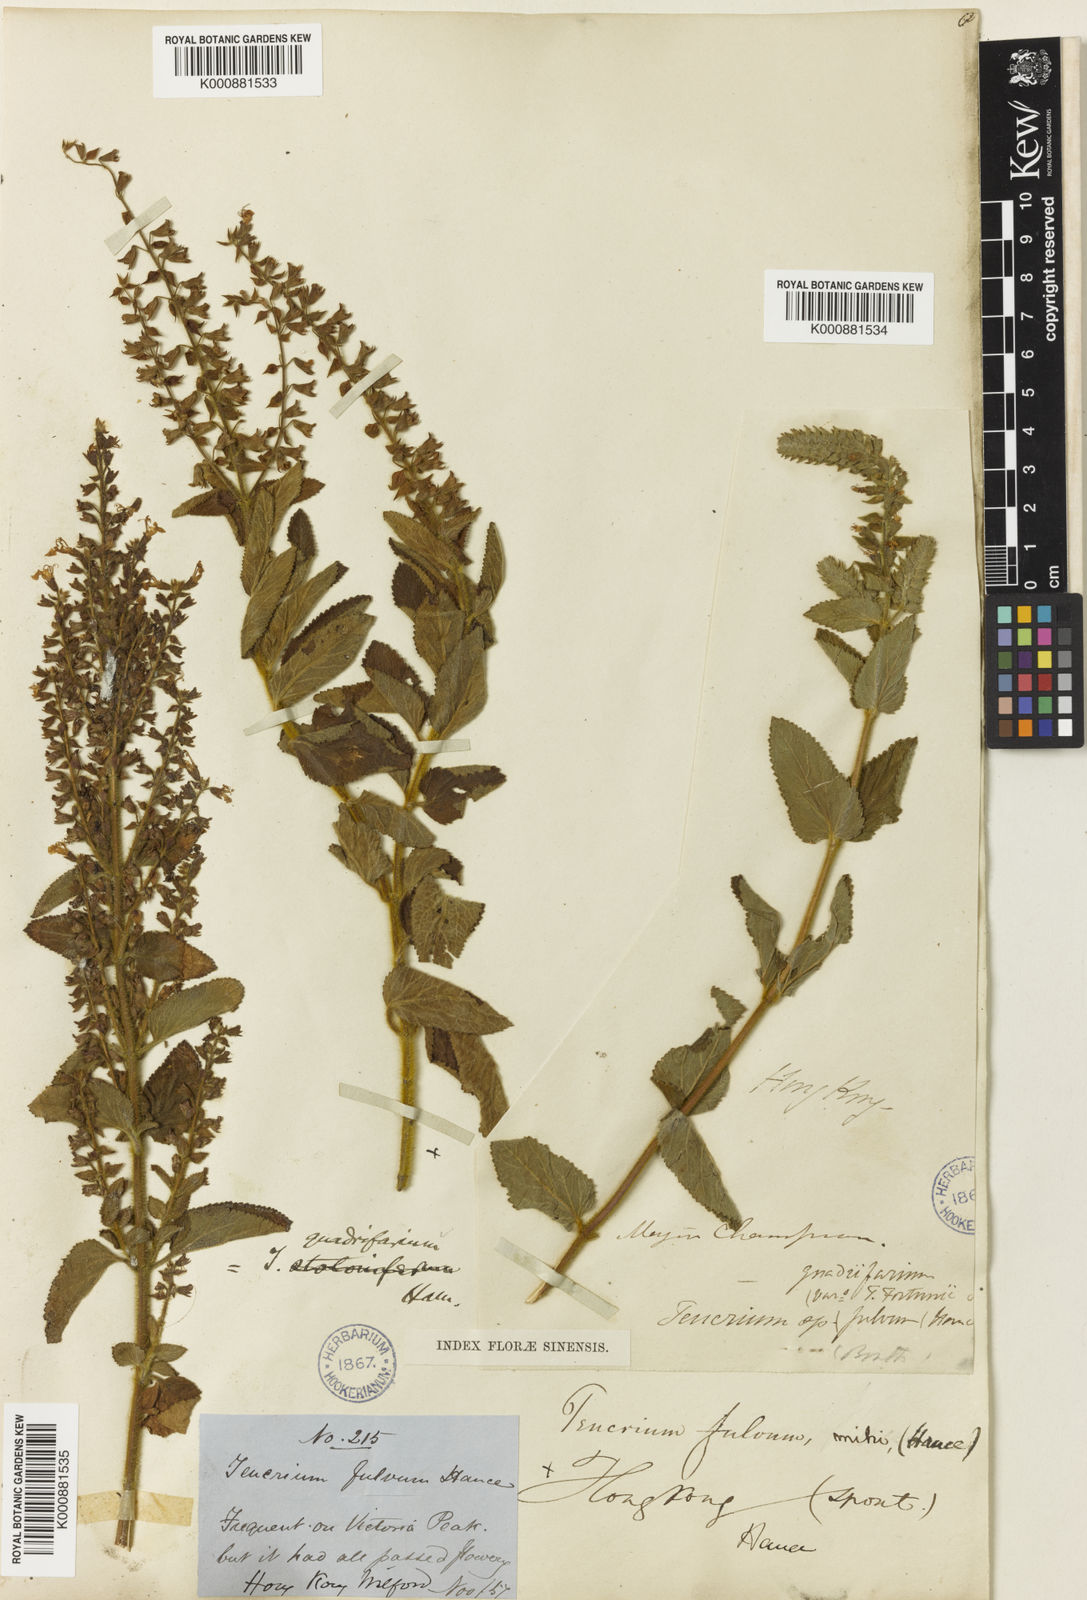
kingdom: Plantae
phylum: Tracheophyta
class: Magnoliopsida
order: Lamiales
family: Lamiaceae
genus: Teucrium
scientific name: Teucrium
